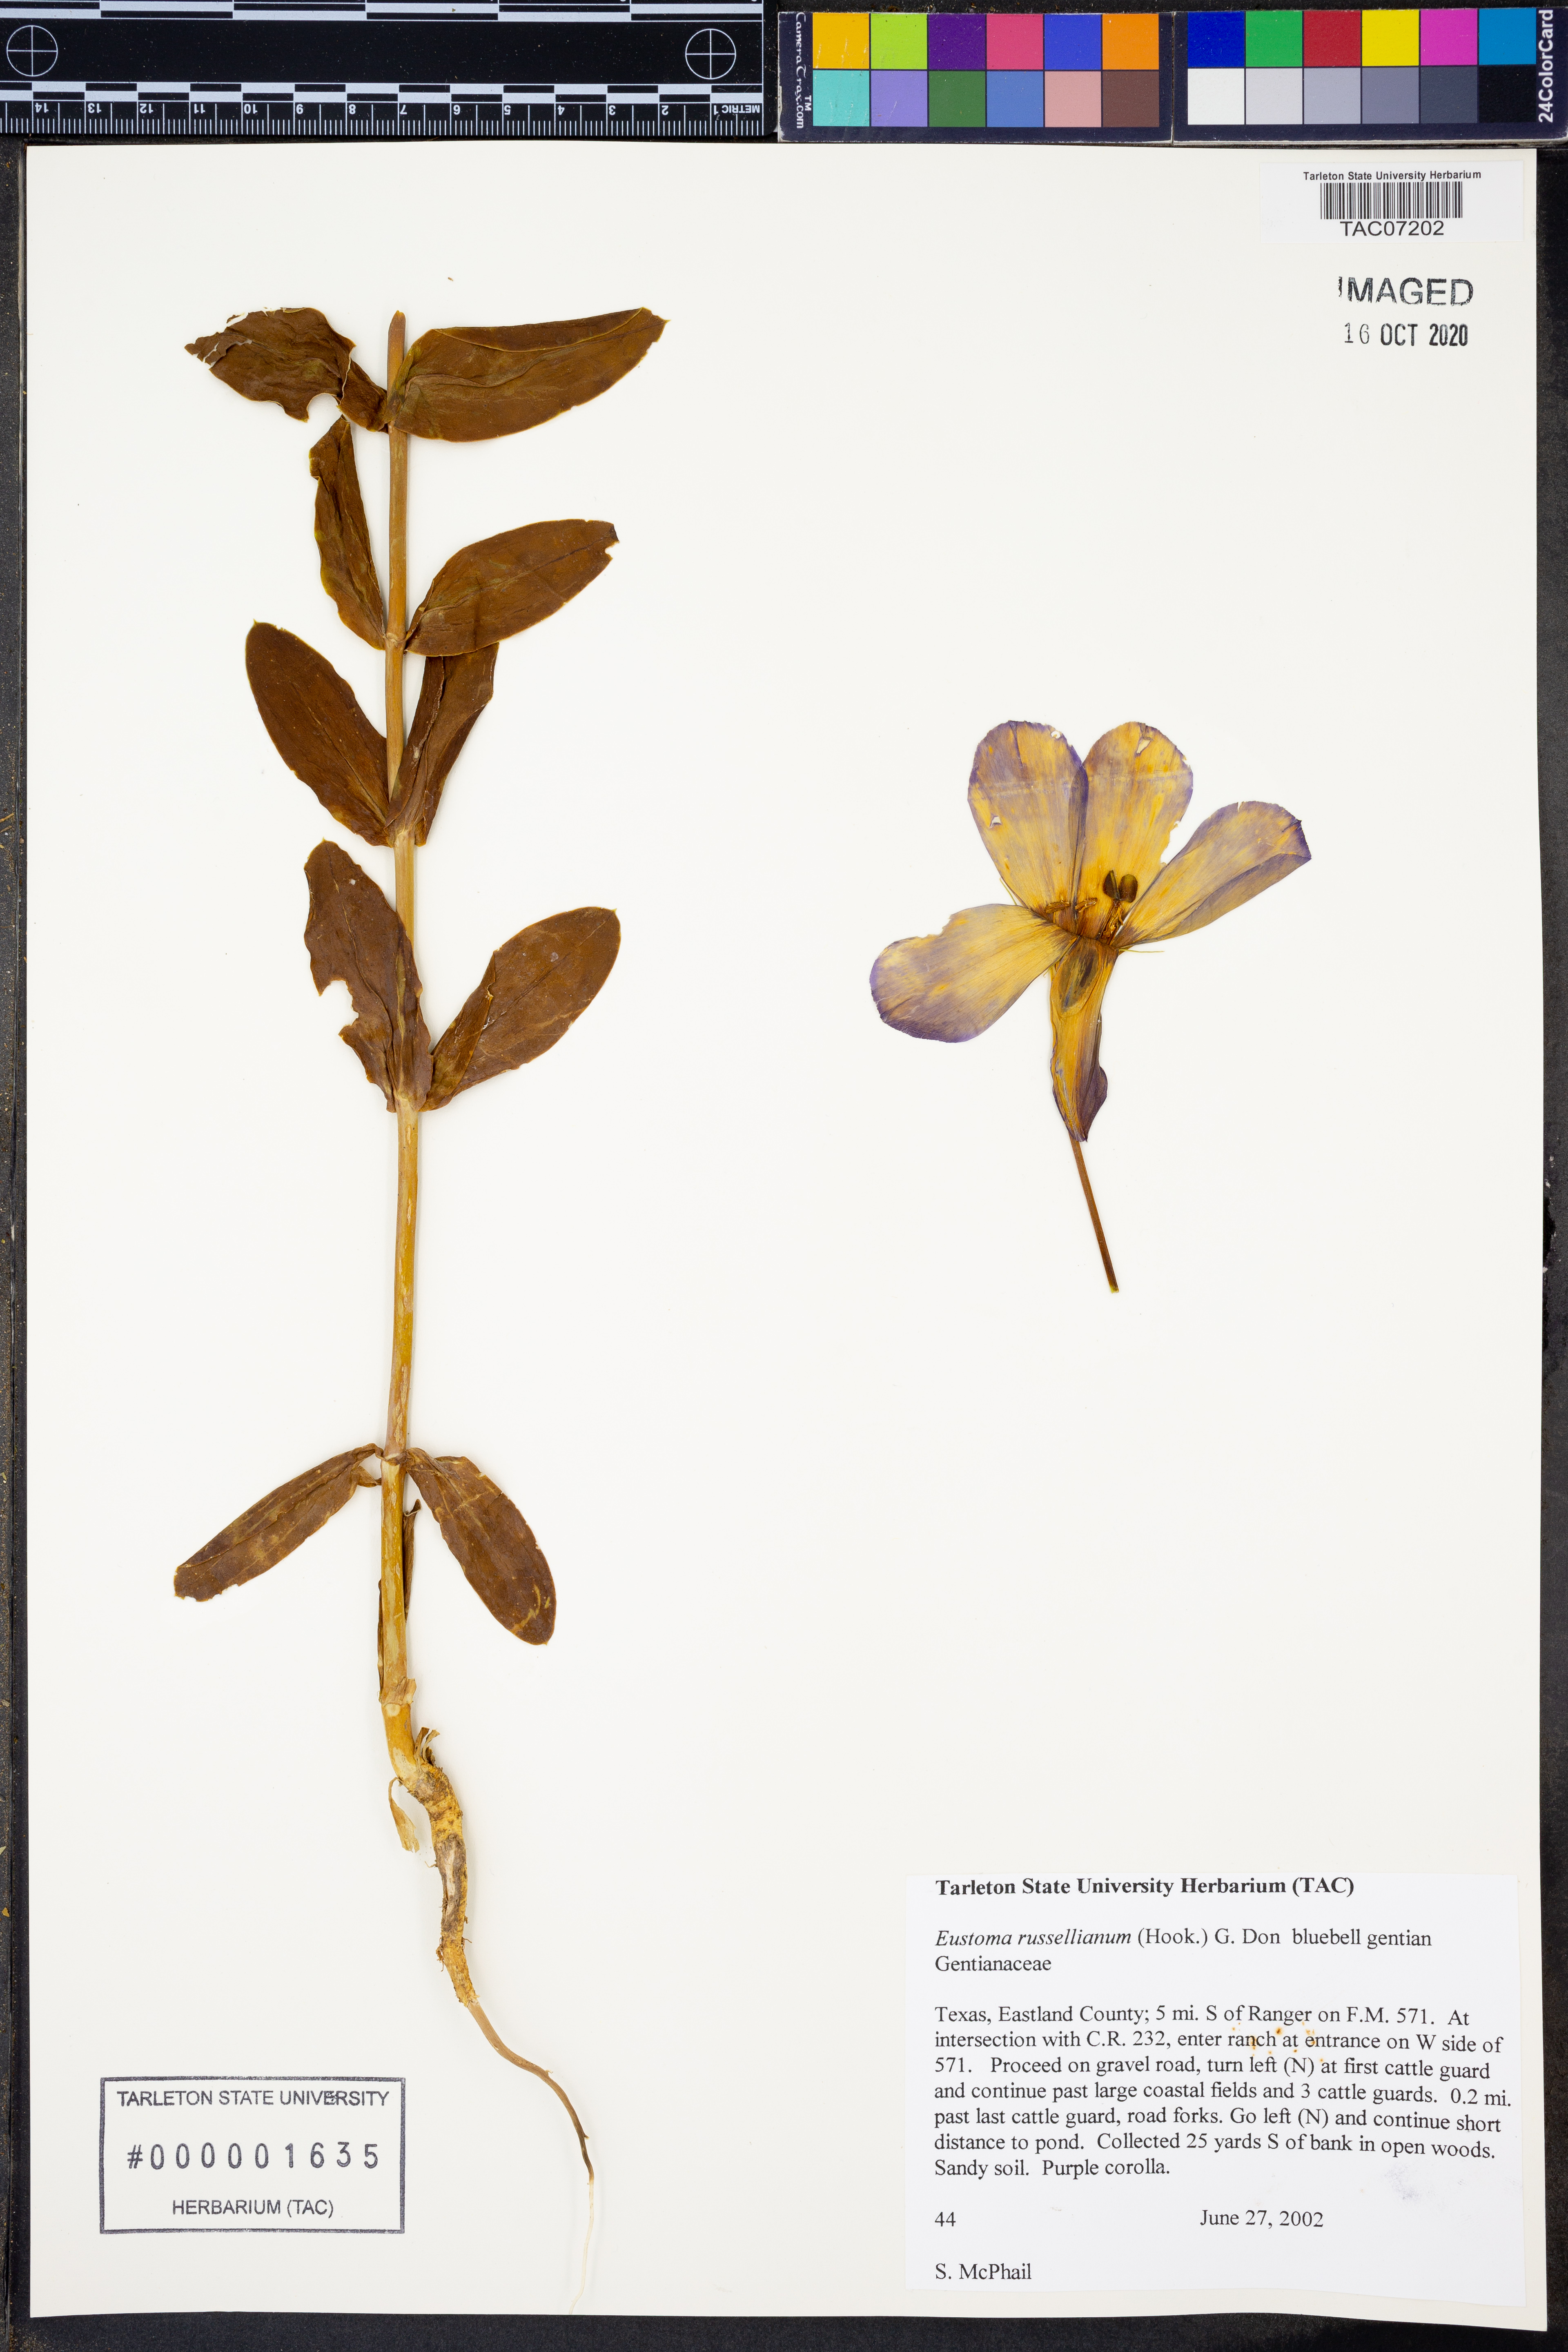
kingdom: Plantae
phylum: Tracheophyta
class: Magnoliopsida
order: Gentianales
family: Gentianaceae
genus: Eustoma
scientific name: Eustoma russellianum
